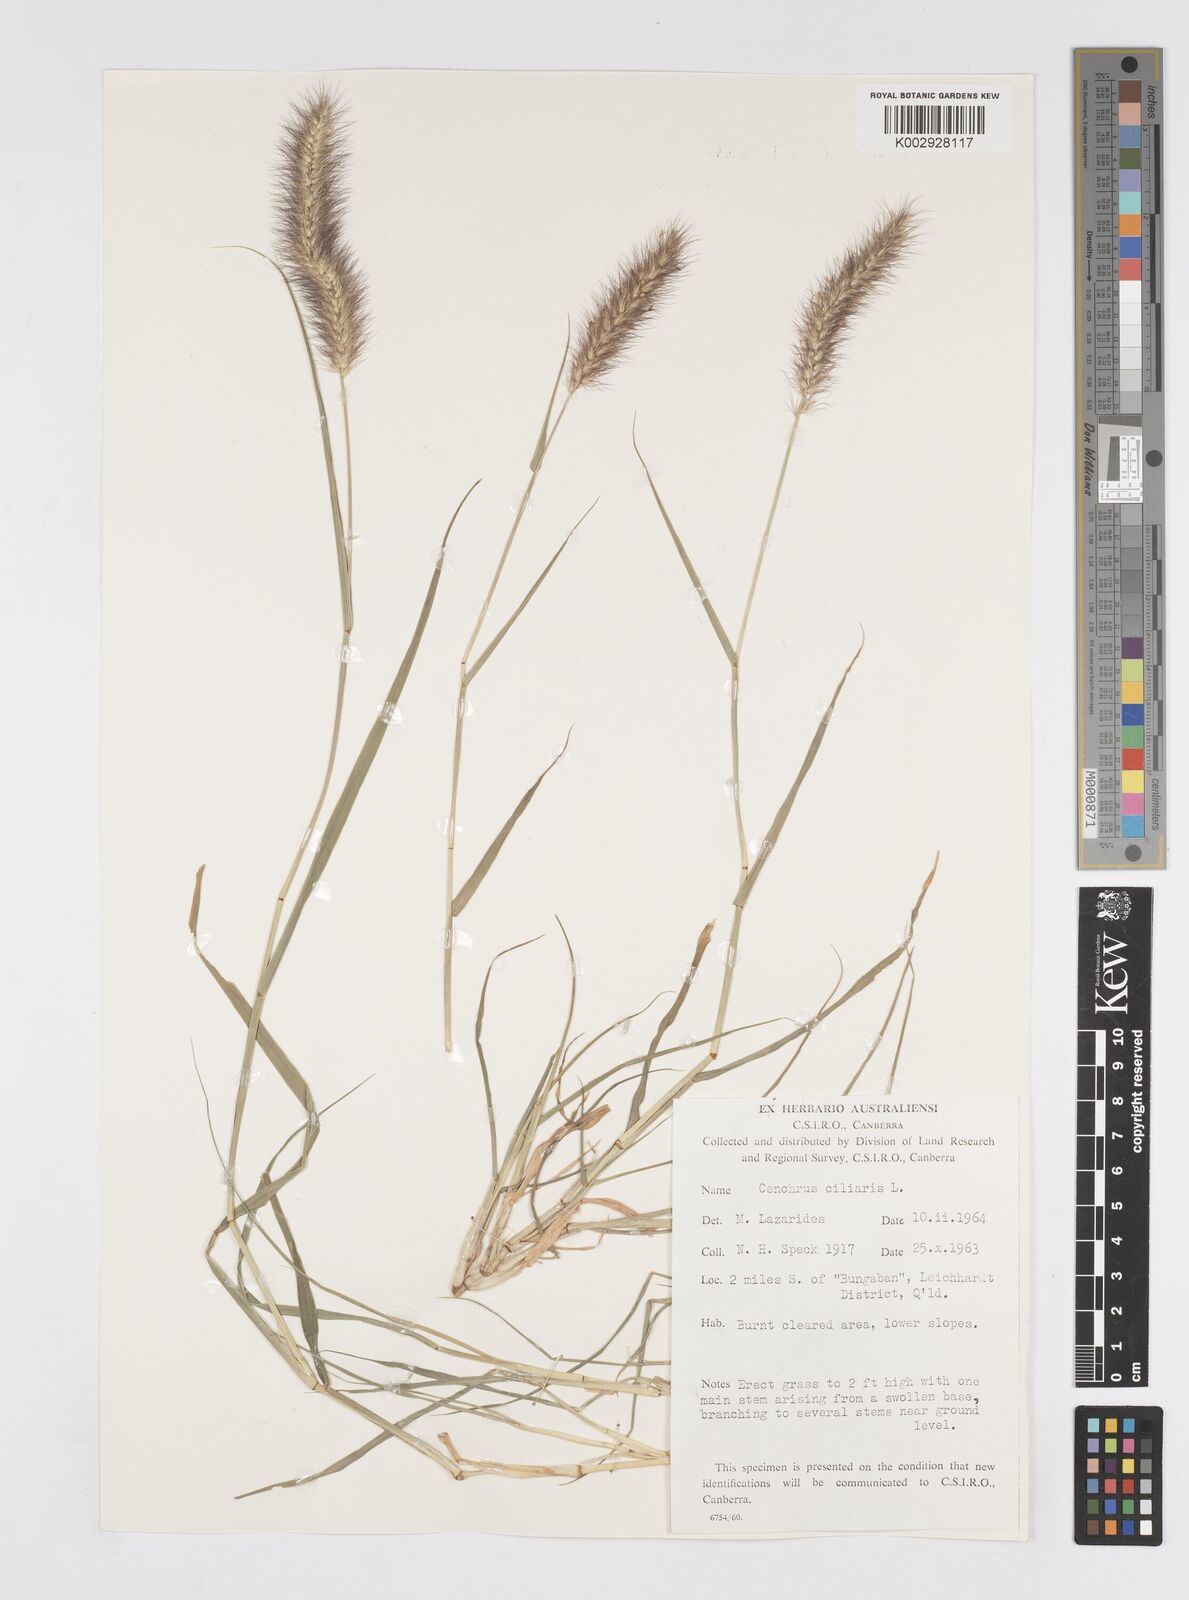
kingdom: Plantae
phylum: Tracheophyta
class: Liliopsida
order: Poales
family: Poaceae
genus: Cenchrus
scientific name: Cenchrus ciliaris
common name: Buffelgrass
